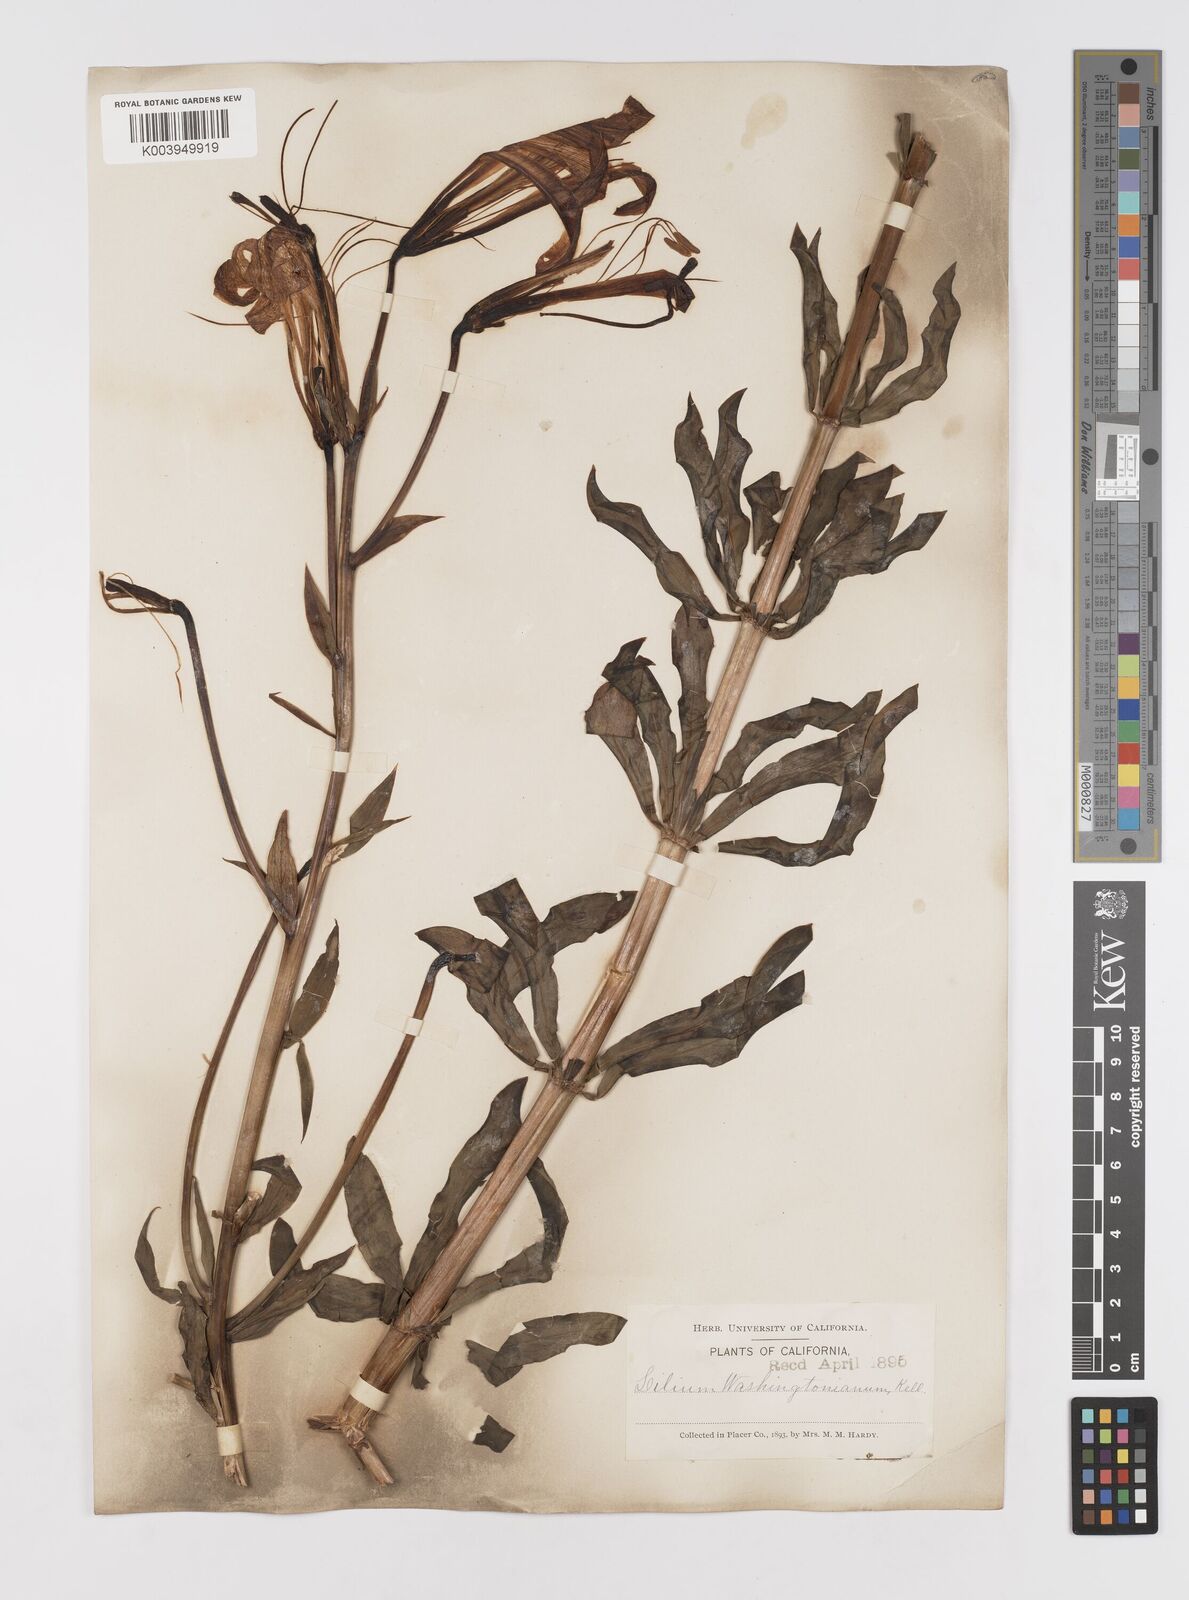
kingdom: Plantae
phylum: Tracheophyta
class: Liliopsida
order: Liliales
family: Liliaceae
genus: Lilium
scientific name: Lilium washingtonianum
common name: Washington lily
